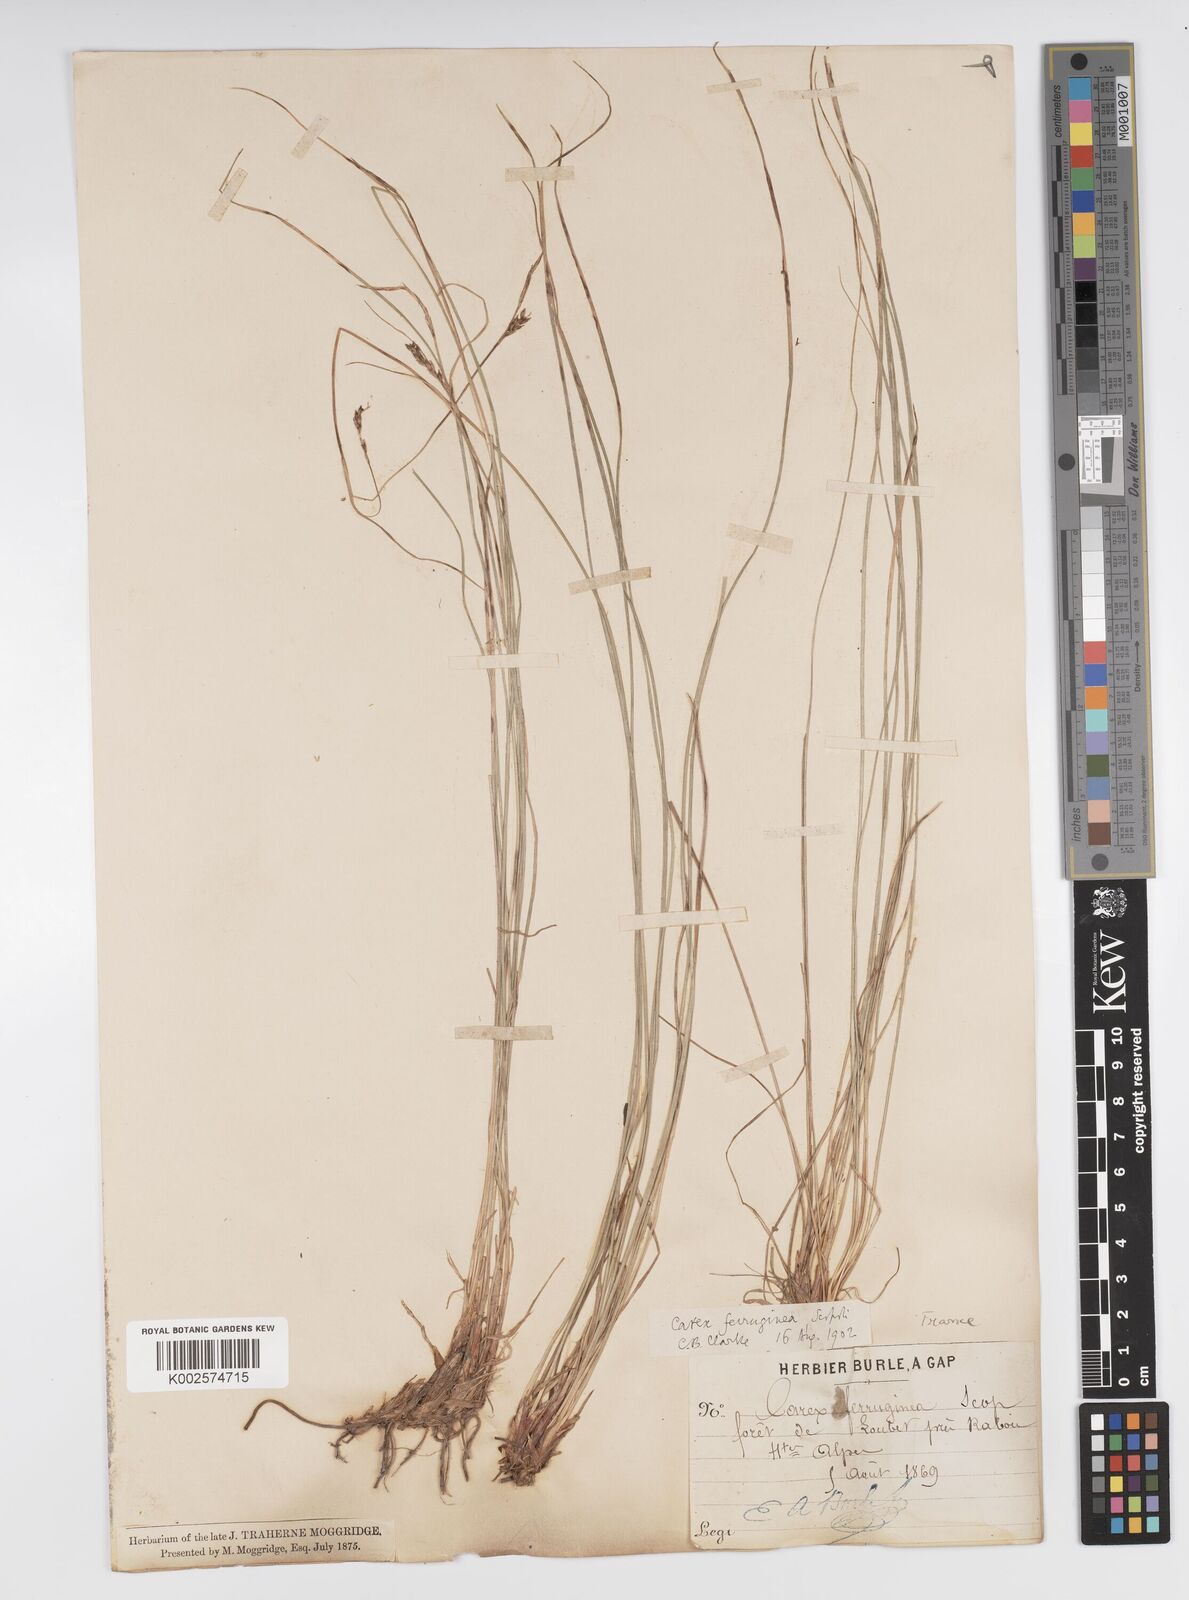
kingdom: Plantae
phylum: Tracheophyta
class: Liliopsida
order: Poales
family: Cyperaceae
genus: Carex
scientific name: Carex ferruginea
